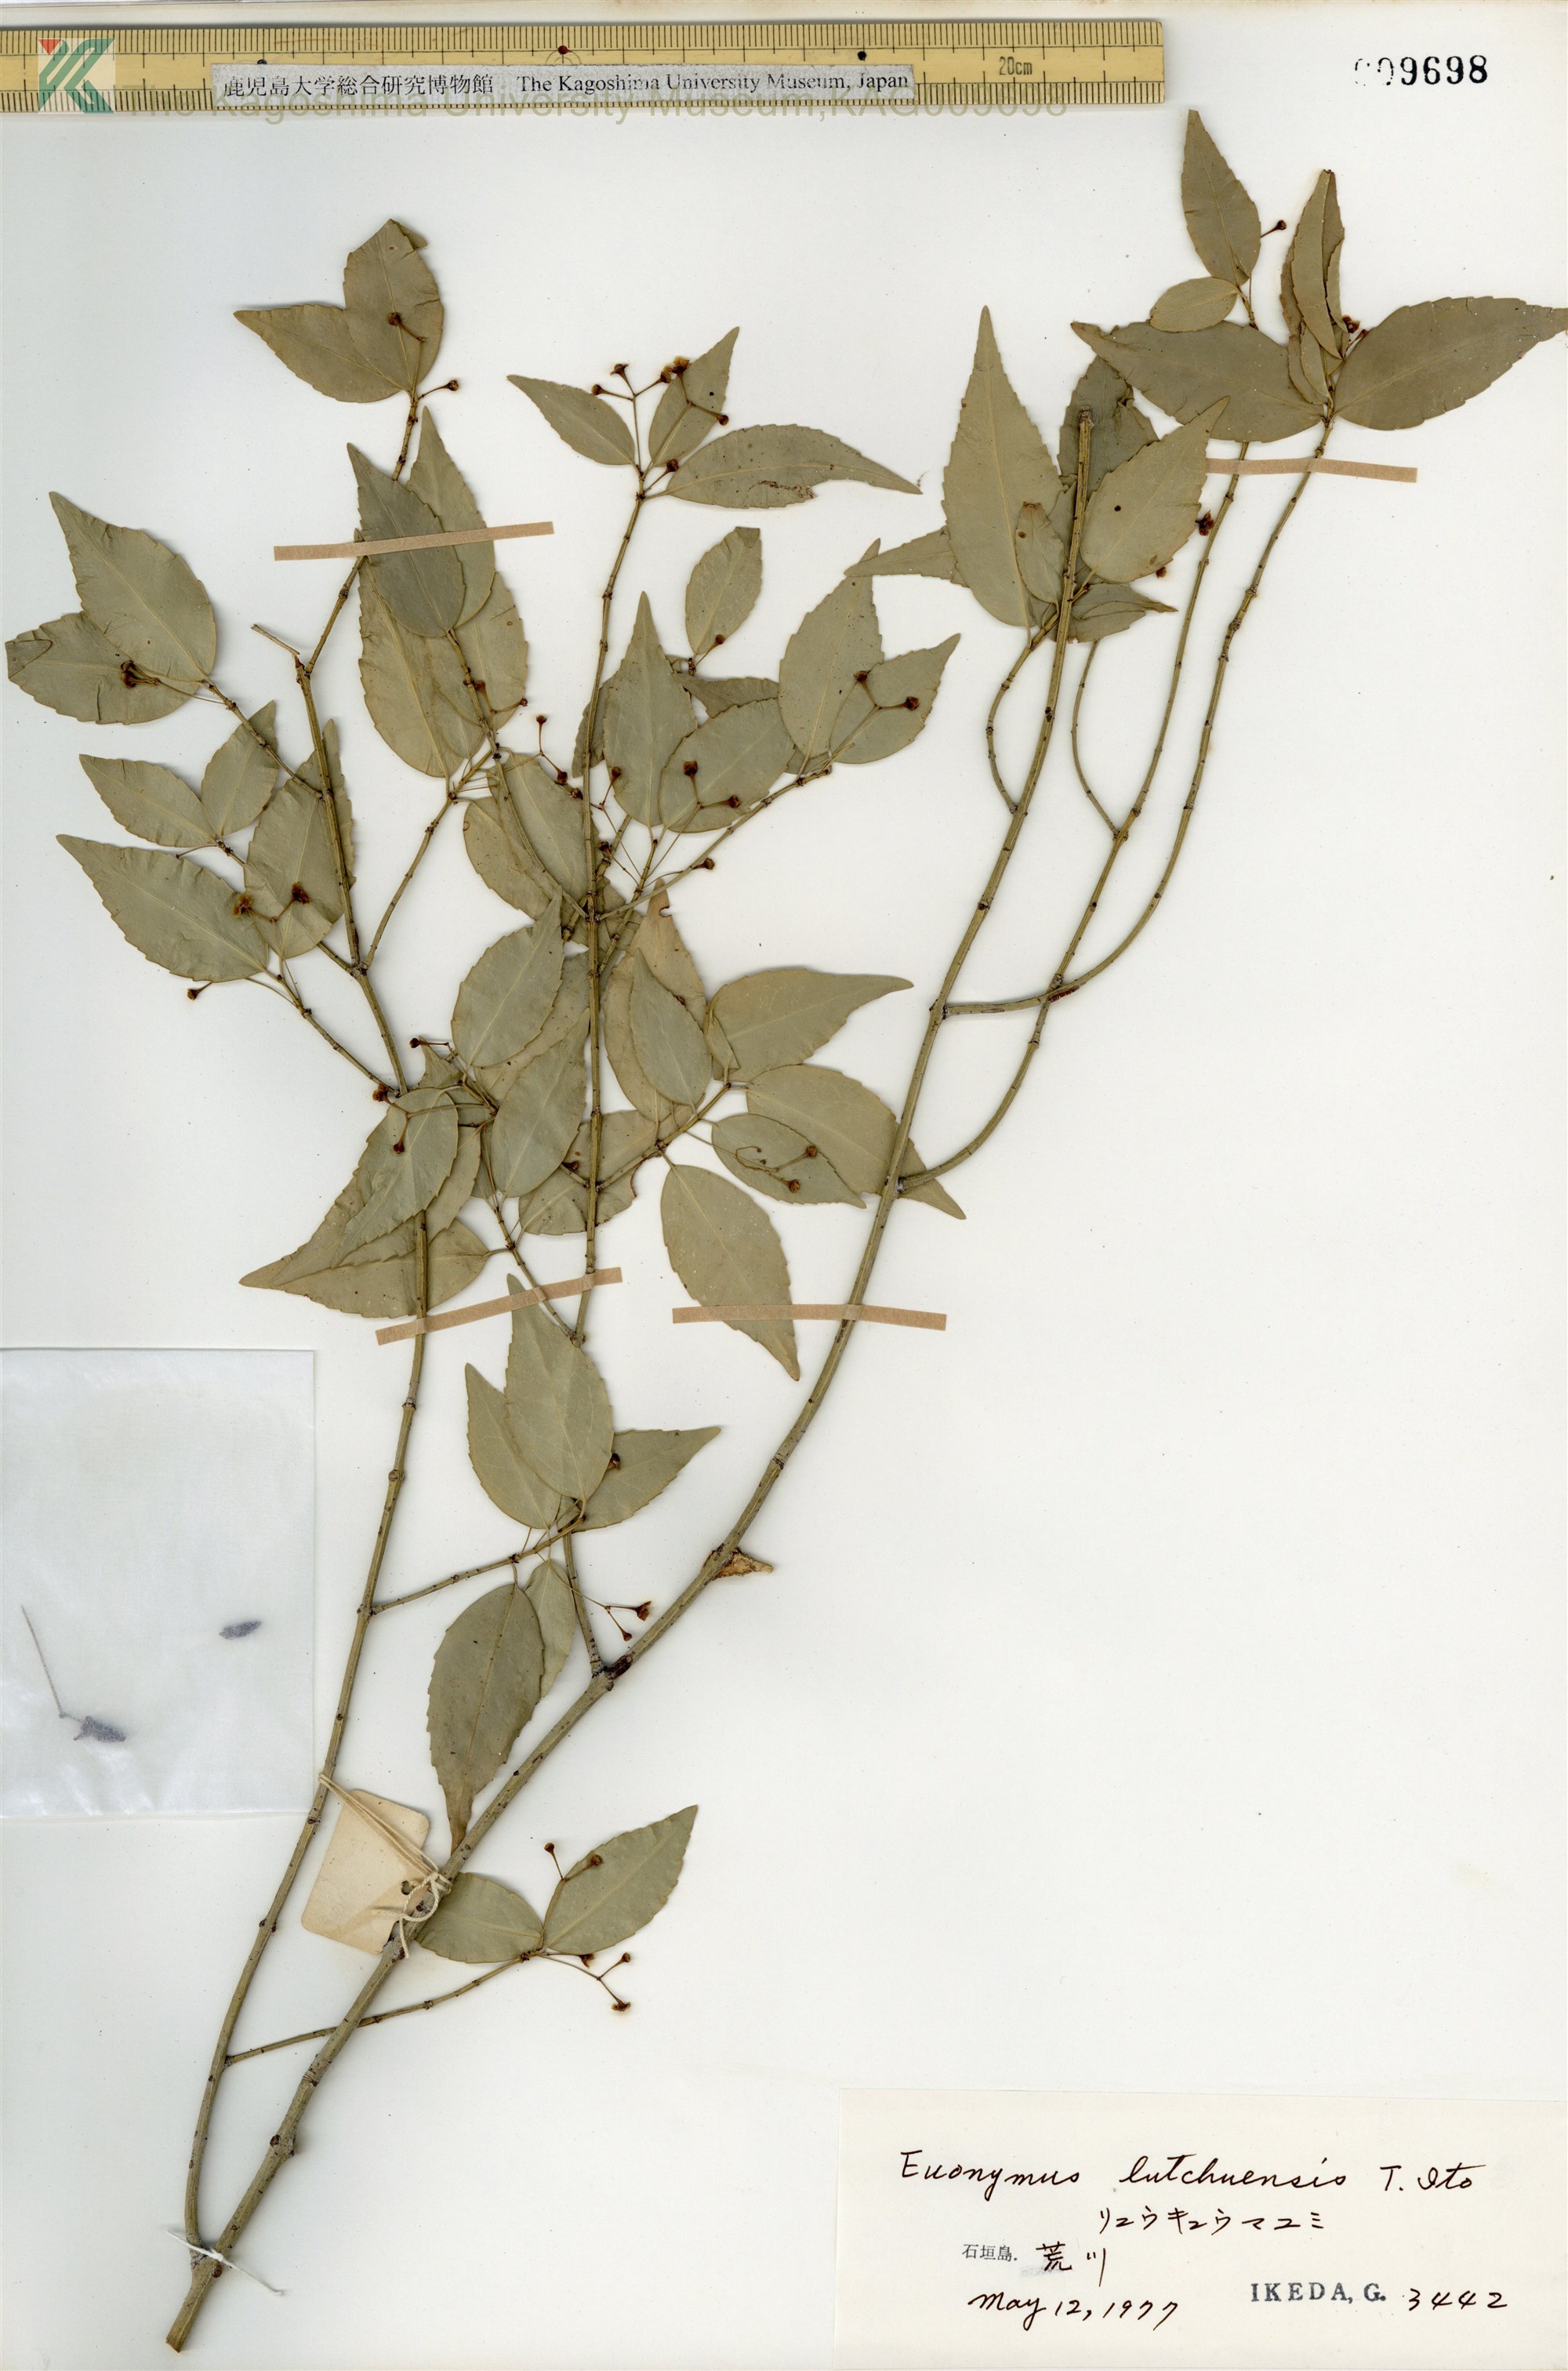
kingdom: Plantae
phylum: Tracheophyta
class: Magnoliopsida
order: Celastrales
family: Celastraceae
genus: Euonymus
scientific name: Euonymus lutchuensis
